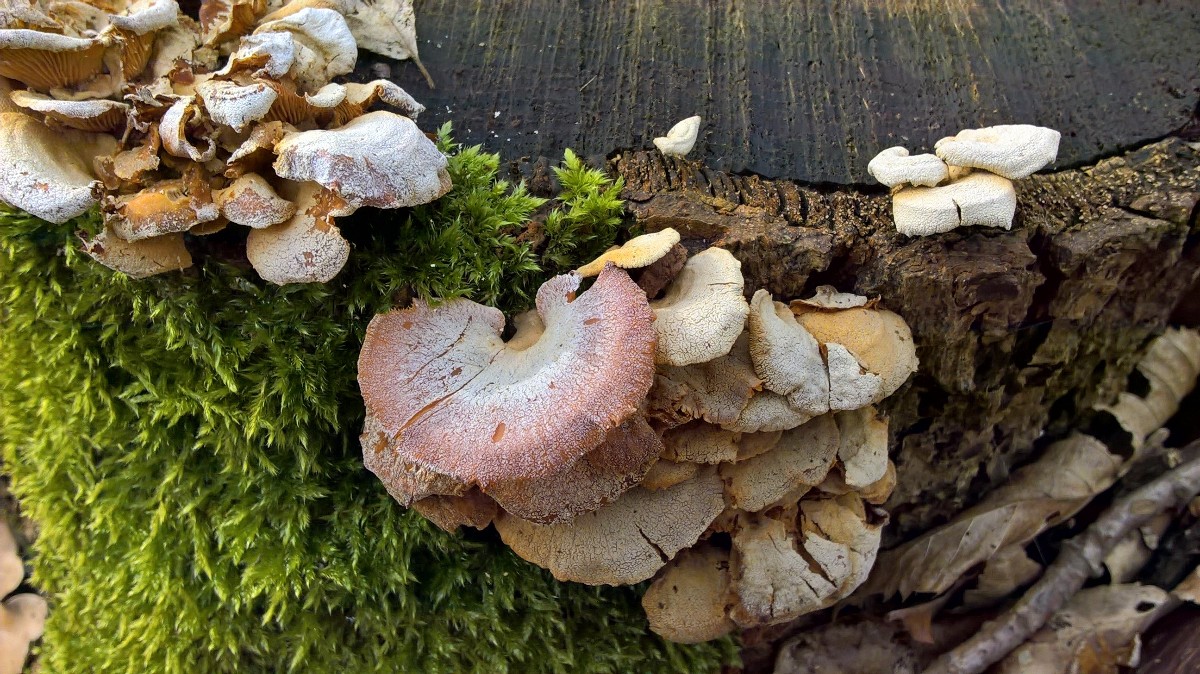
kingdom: Fungi
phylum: Basidiomycota
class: Agaricomycetes
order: Agaricales
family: Mycenaceae
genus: Panellus
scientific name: Panellus stipticus
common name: kliddet epaulethat
